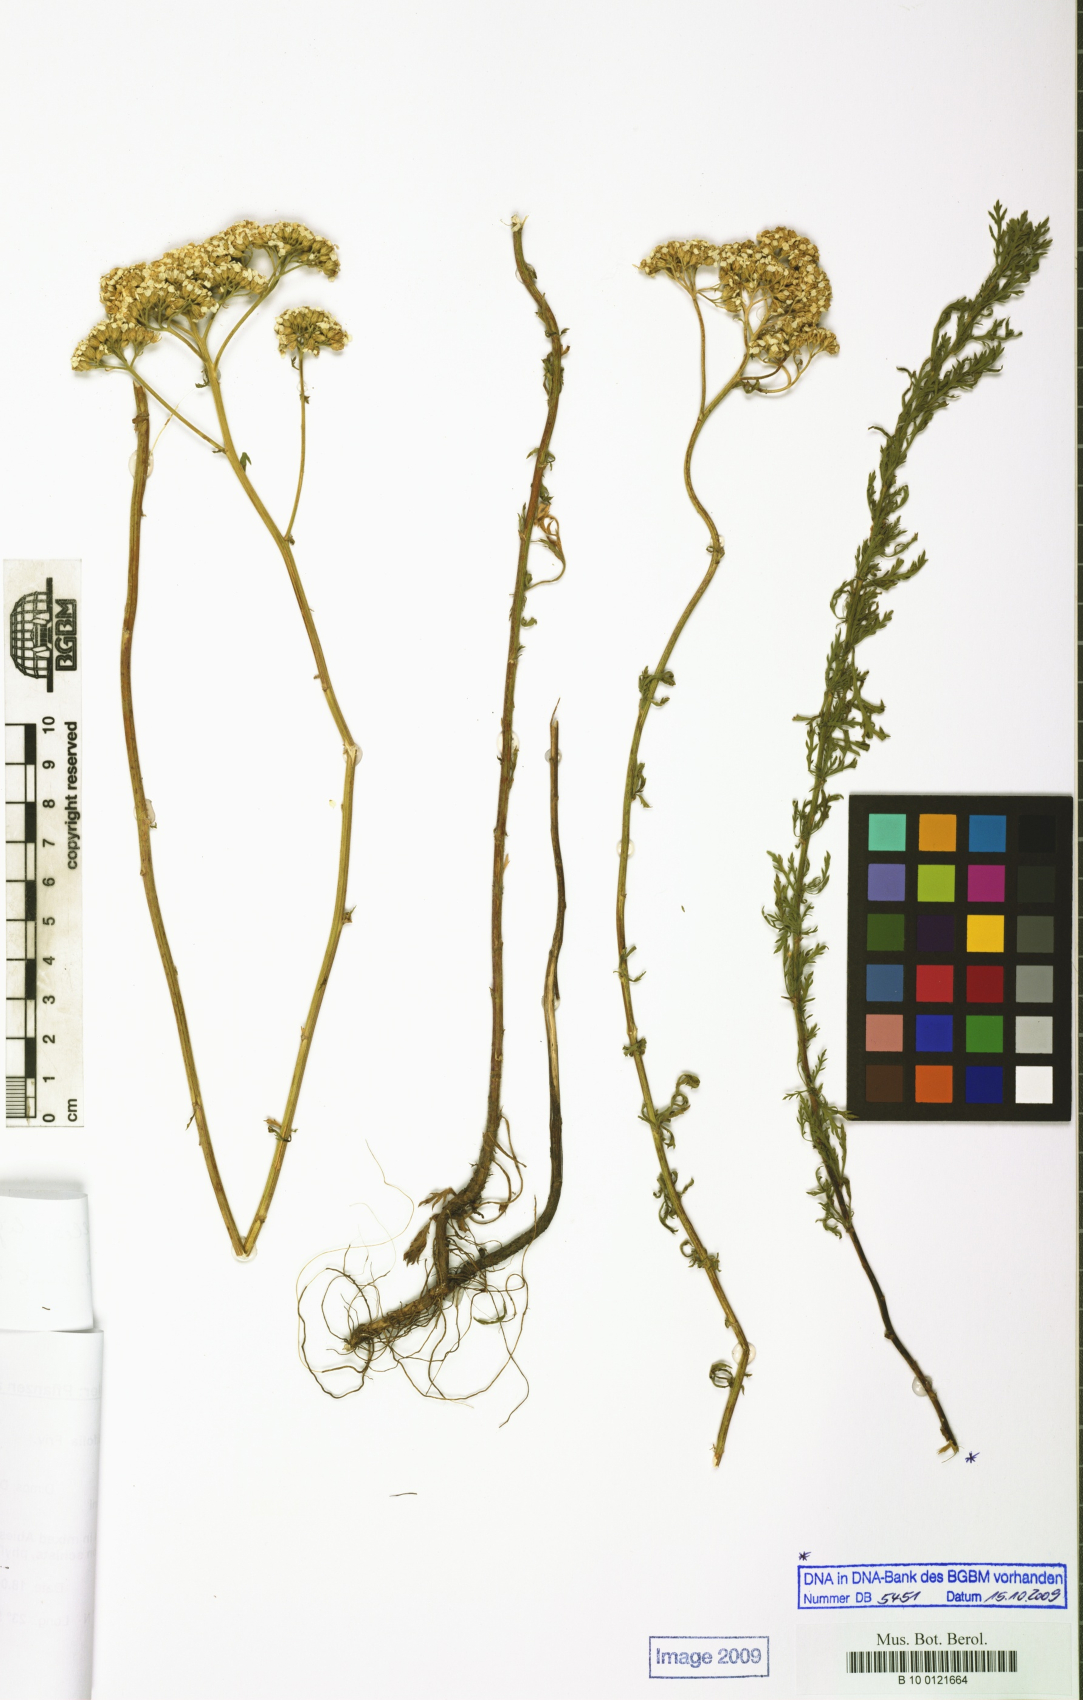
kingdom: Plantae
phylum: Tracheophyta
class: Magnoliopsida
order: Asterales
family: Asteraceae
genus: Achillea
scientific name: Achillea ligustica
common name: Southern yarrow
